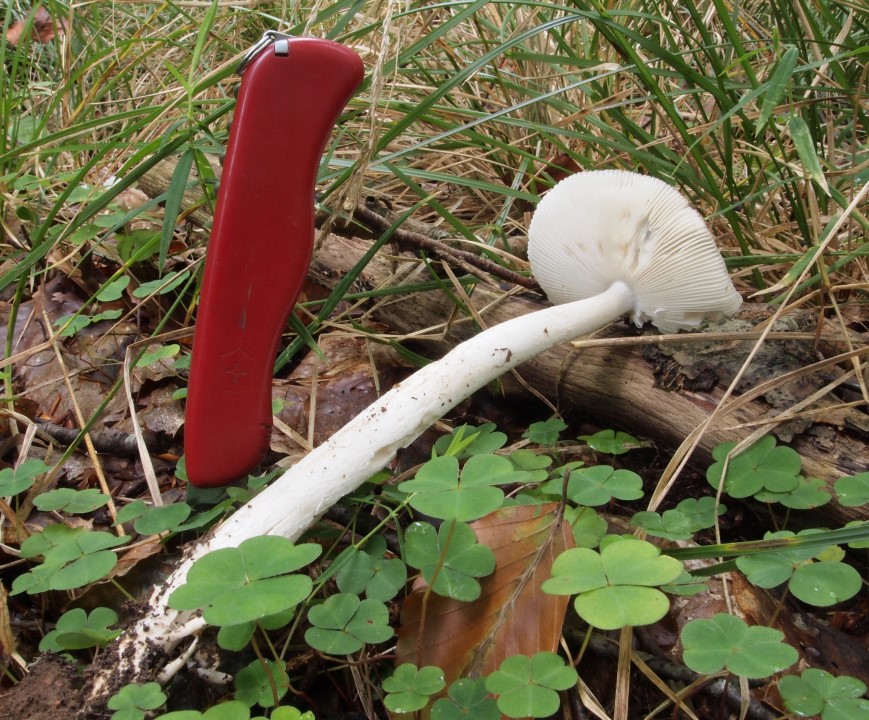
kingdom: Fungi
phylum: Basidiomycota
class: Agaricomycetes
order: Agaricales
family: Amanitaceae
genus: Amanita
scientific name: Amanita vaginata
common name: grå kam-fluesvamp
